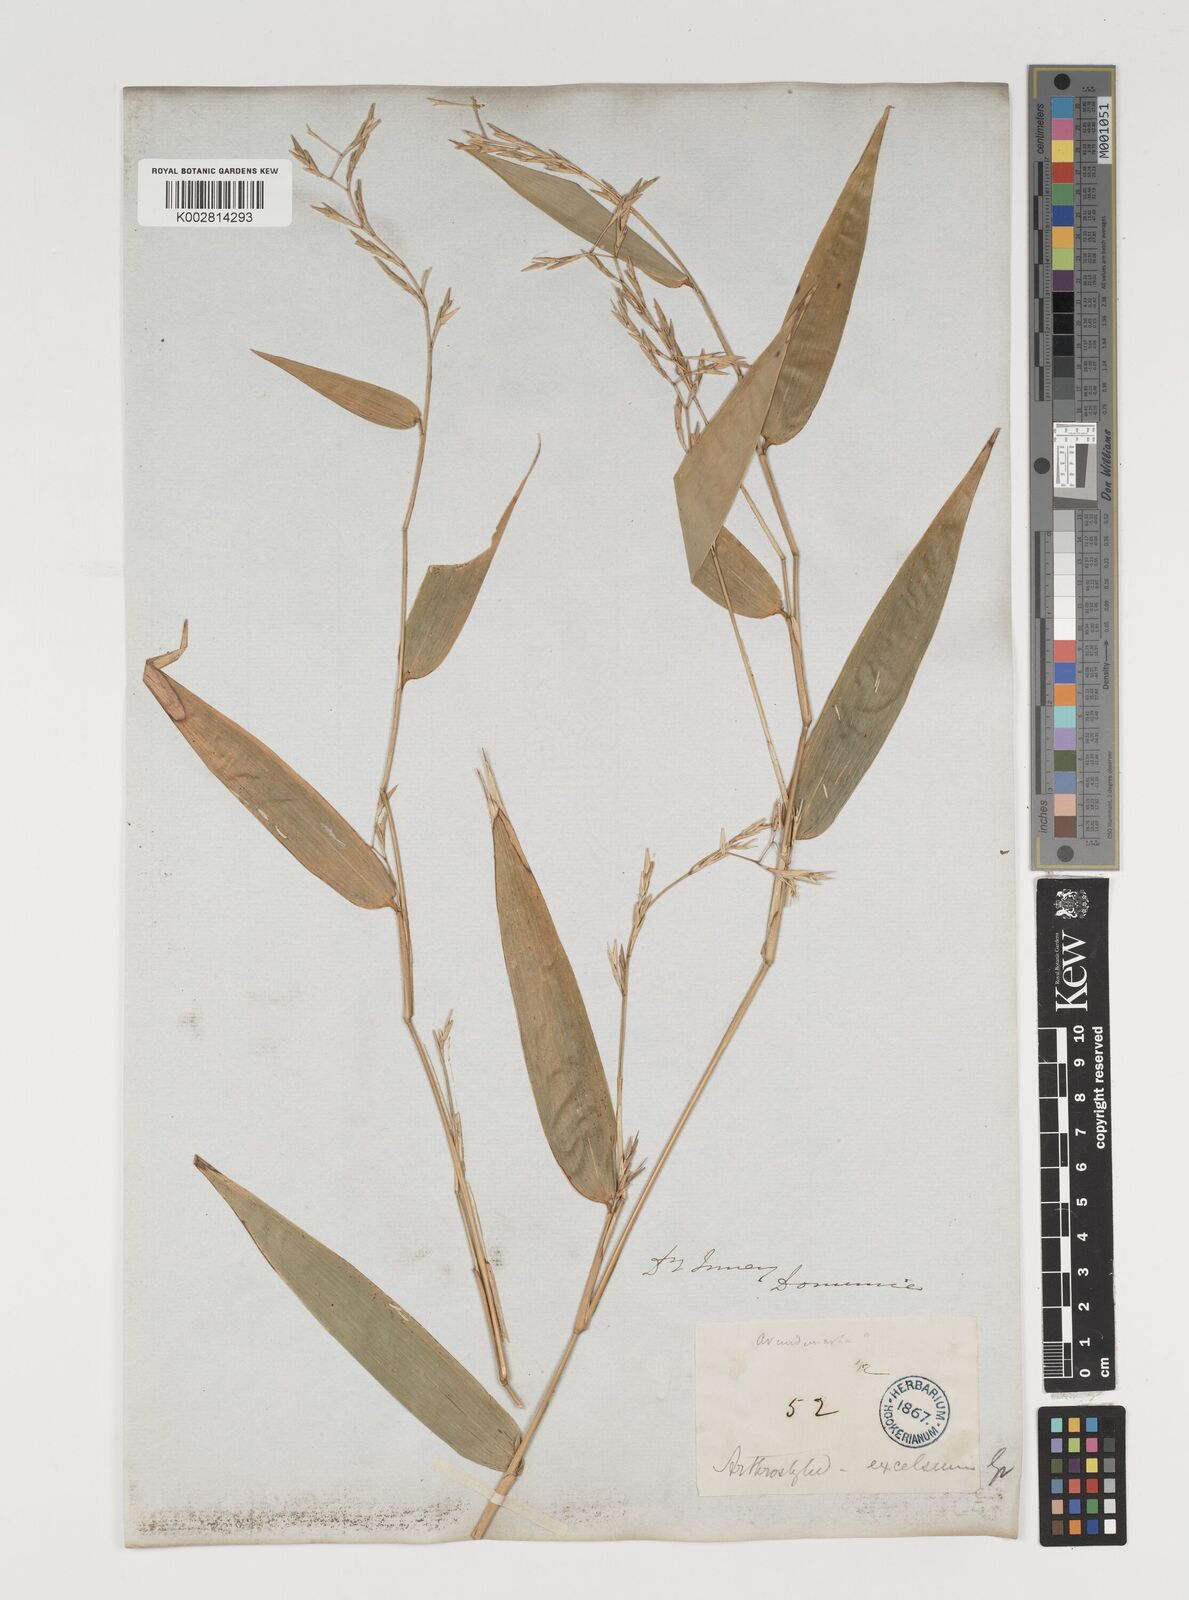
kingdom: Plantae
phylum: Tracheophyta
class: Liliopsida
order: Poales
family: Poaceae
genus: Arthrostylidium
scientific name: Arthrostylidium excelsum
